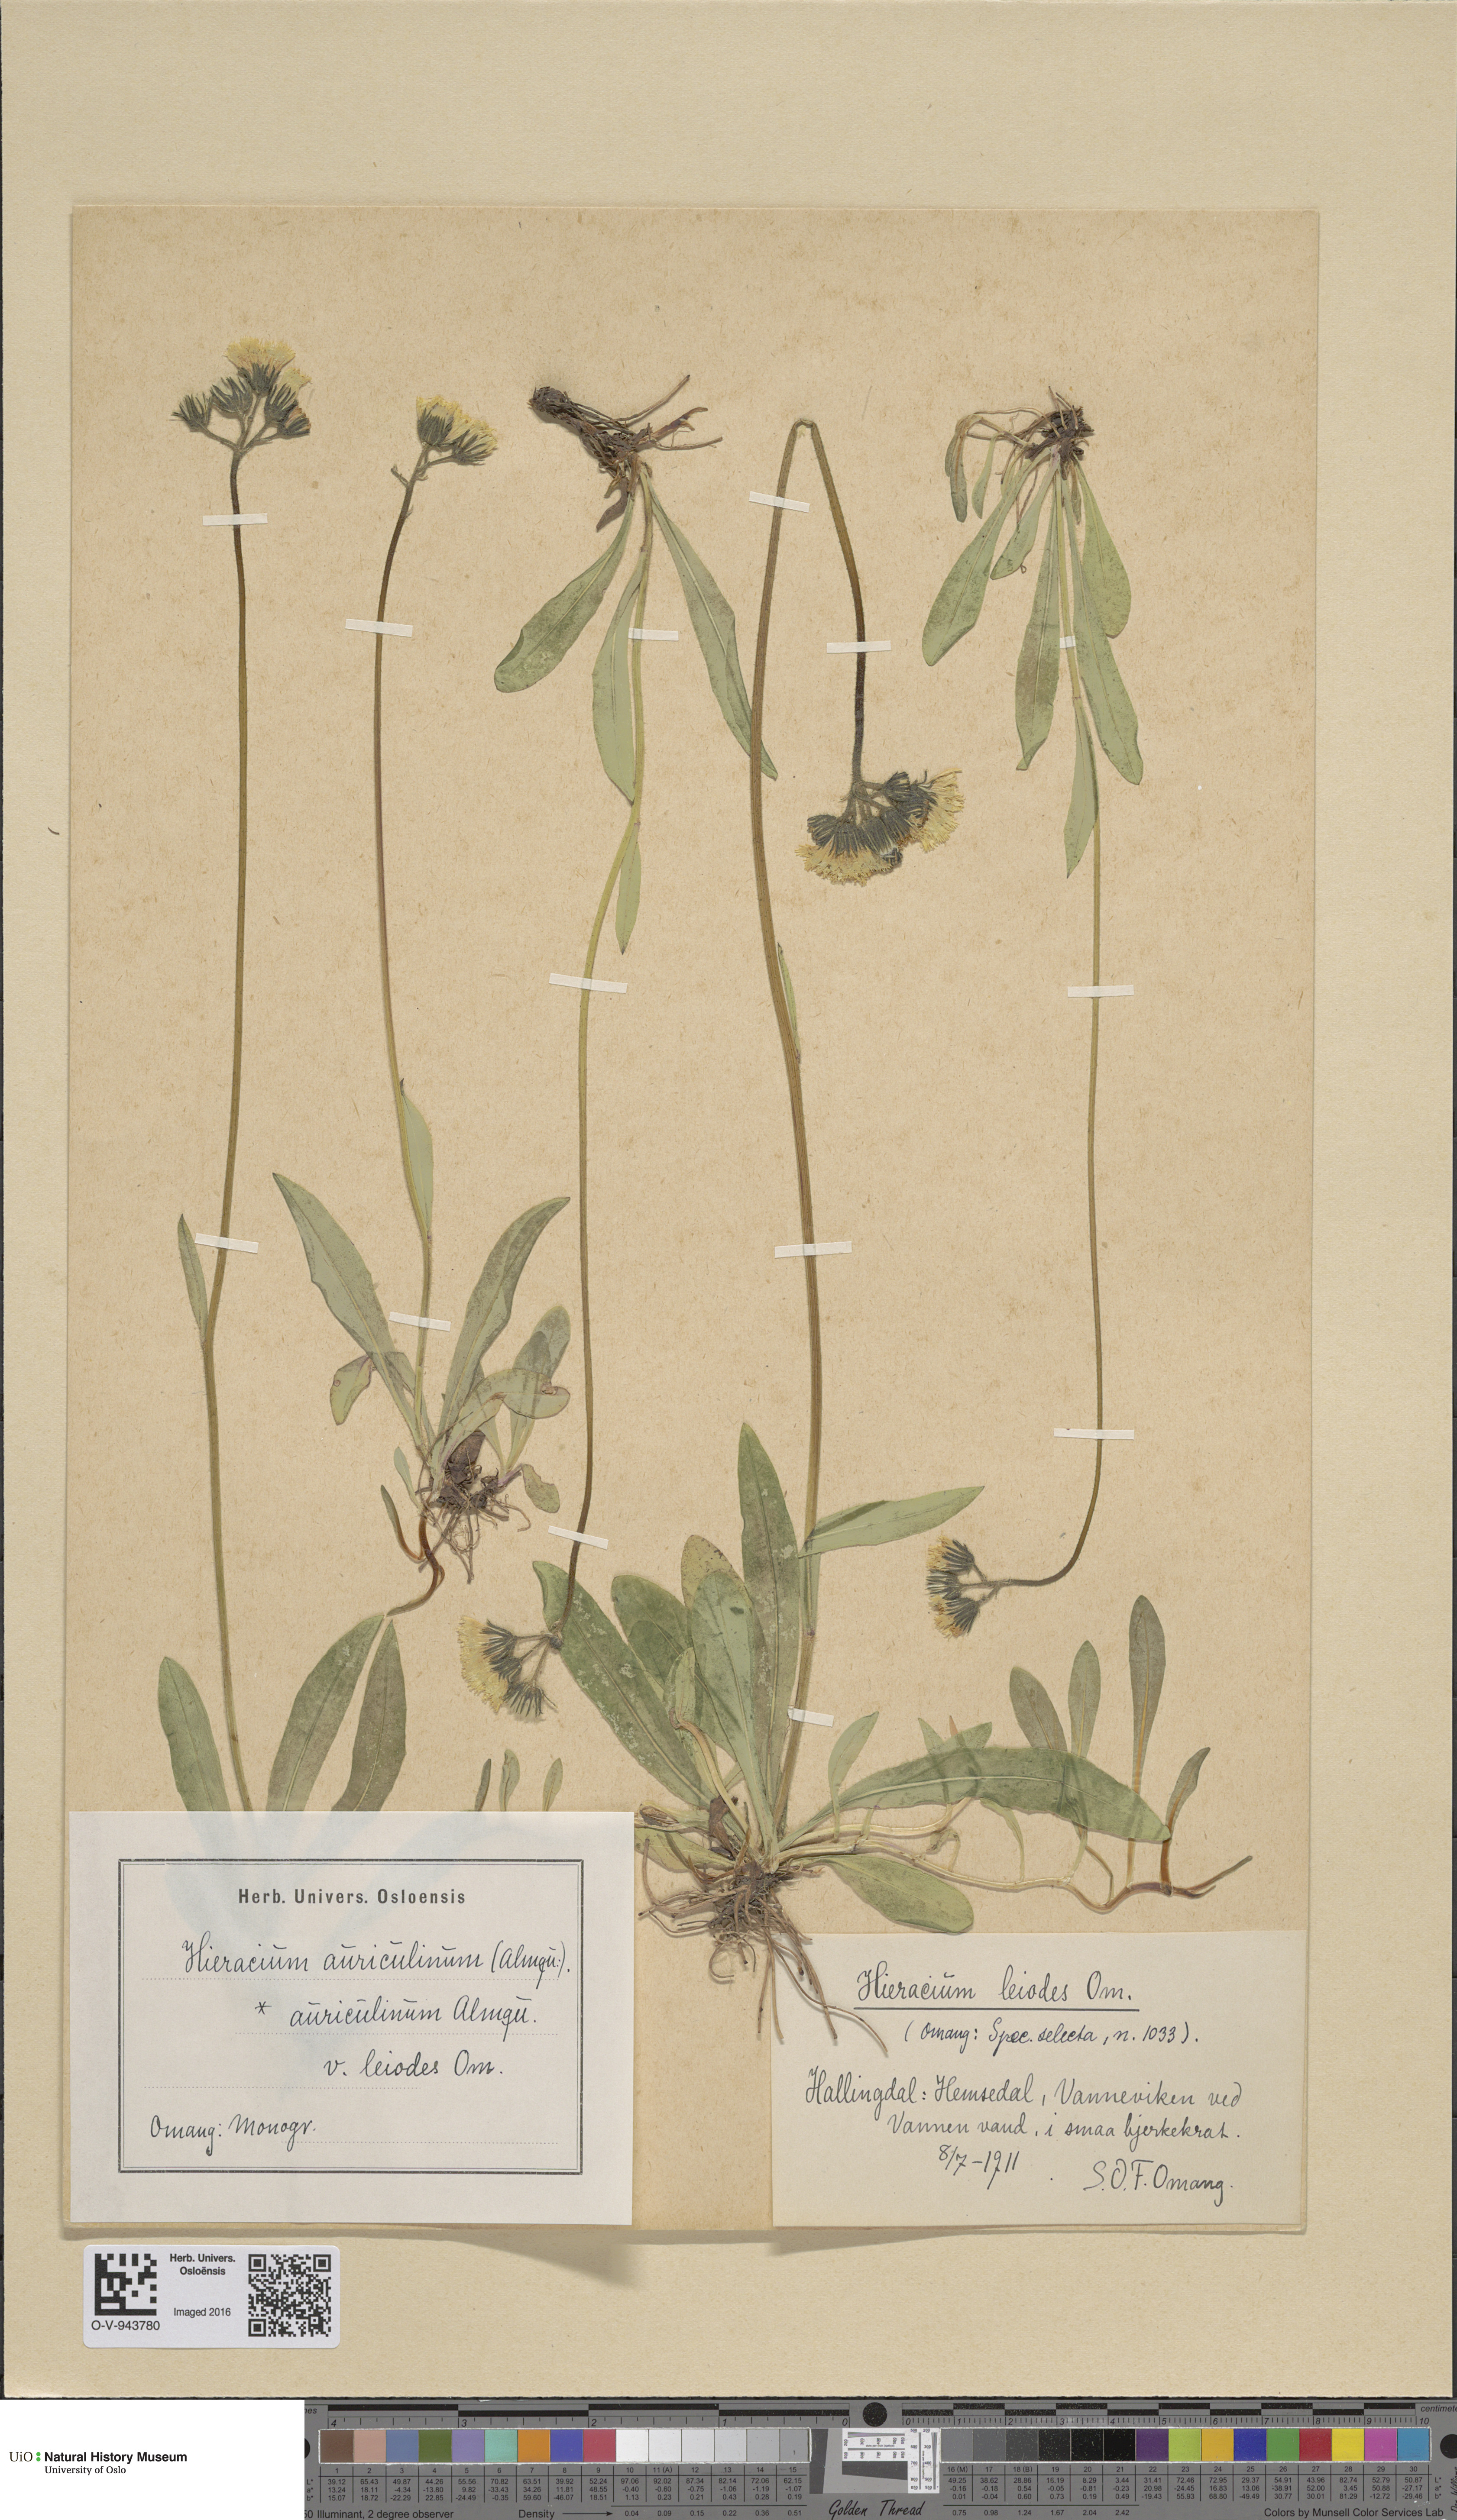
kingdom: Plantae
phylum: Tracheophyta
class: Magnoliopsida
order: Asterales
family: Asteraceae
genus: Pilosella
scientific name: Pilosella dubia
